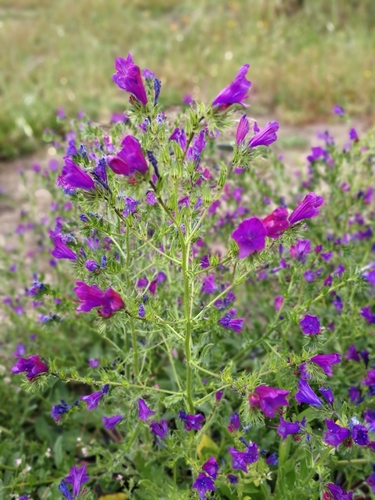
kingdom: Plantae
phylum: Tracheophyta
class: Magnoliopsida
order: Boraginales
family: Boraginaceae
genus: Echium
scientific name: Echium plantagineum
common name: Purple viper's-bugloss
